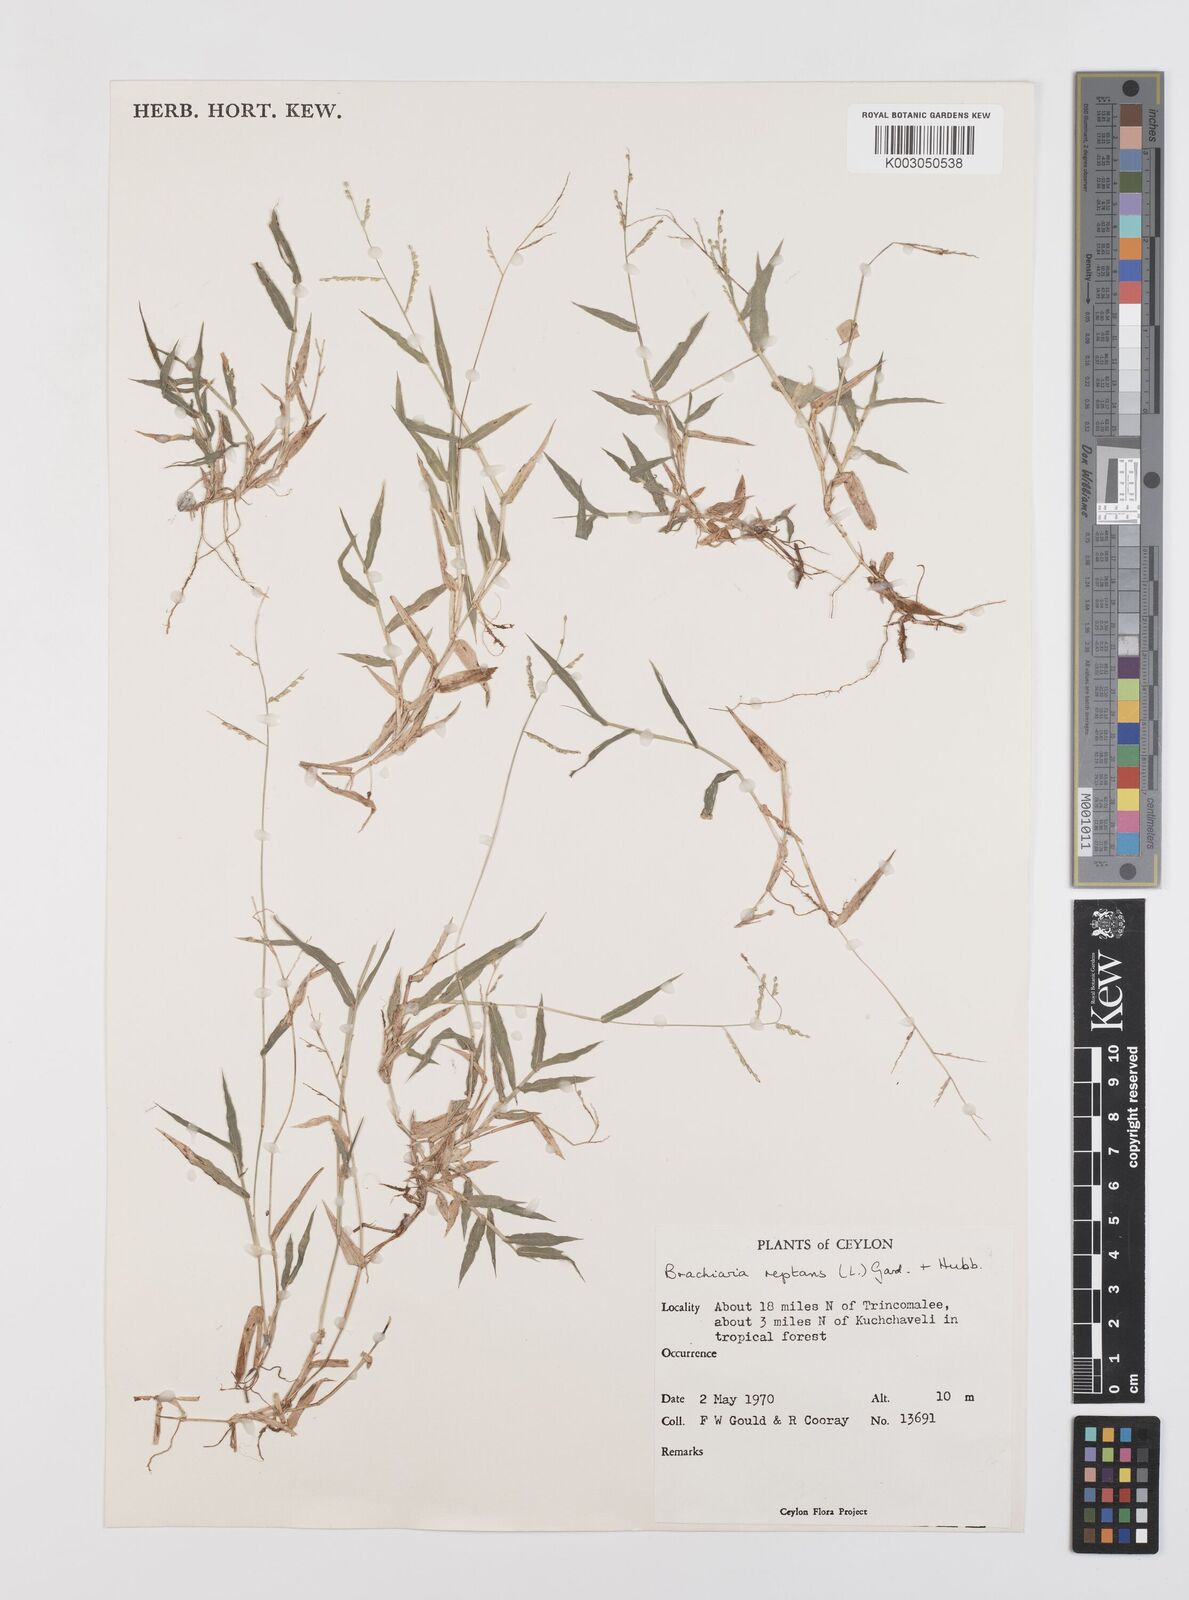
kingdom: Plantae
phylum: Tracheophyta
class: Liliopsida
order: Poales
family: Poaceae
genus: Urochloa
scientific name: Urochloa reptans
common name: Sprawling signalgrass
